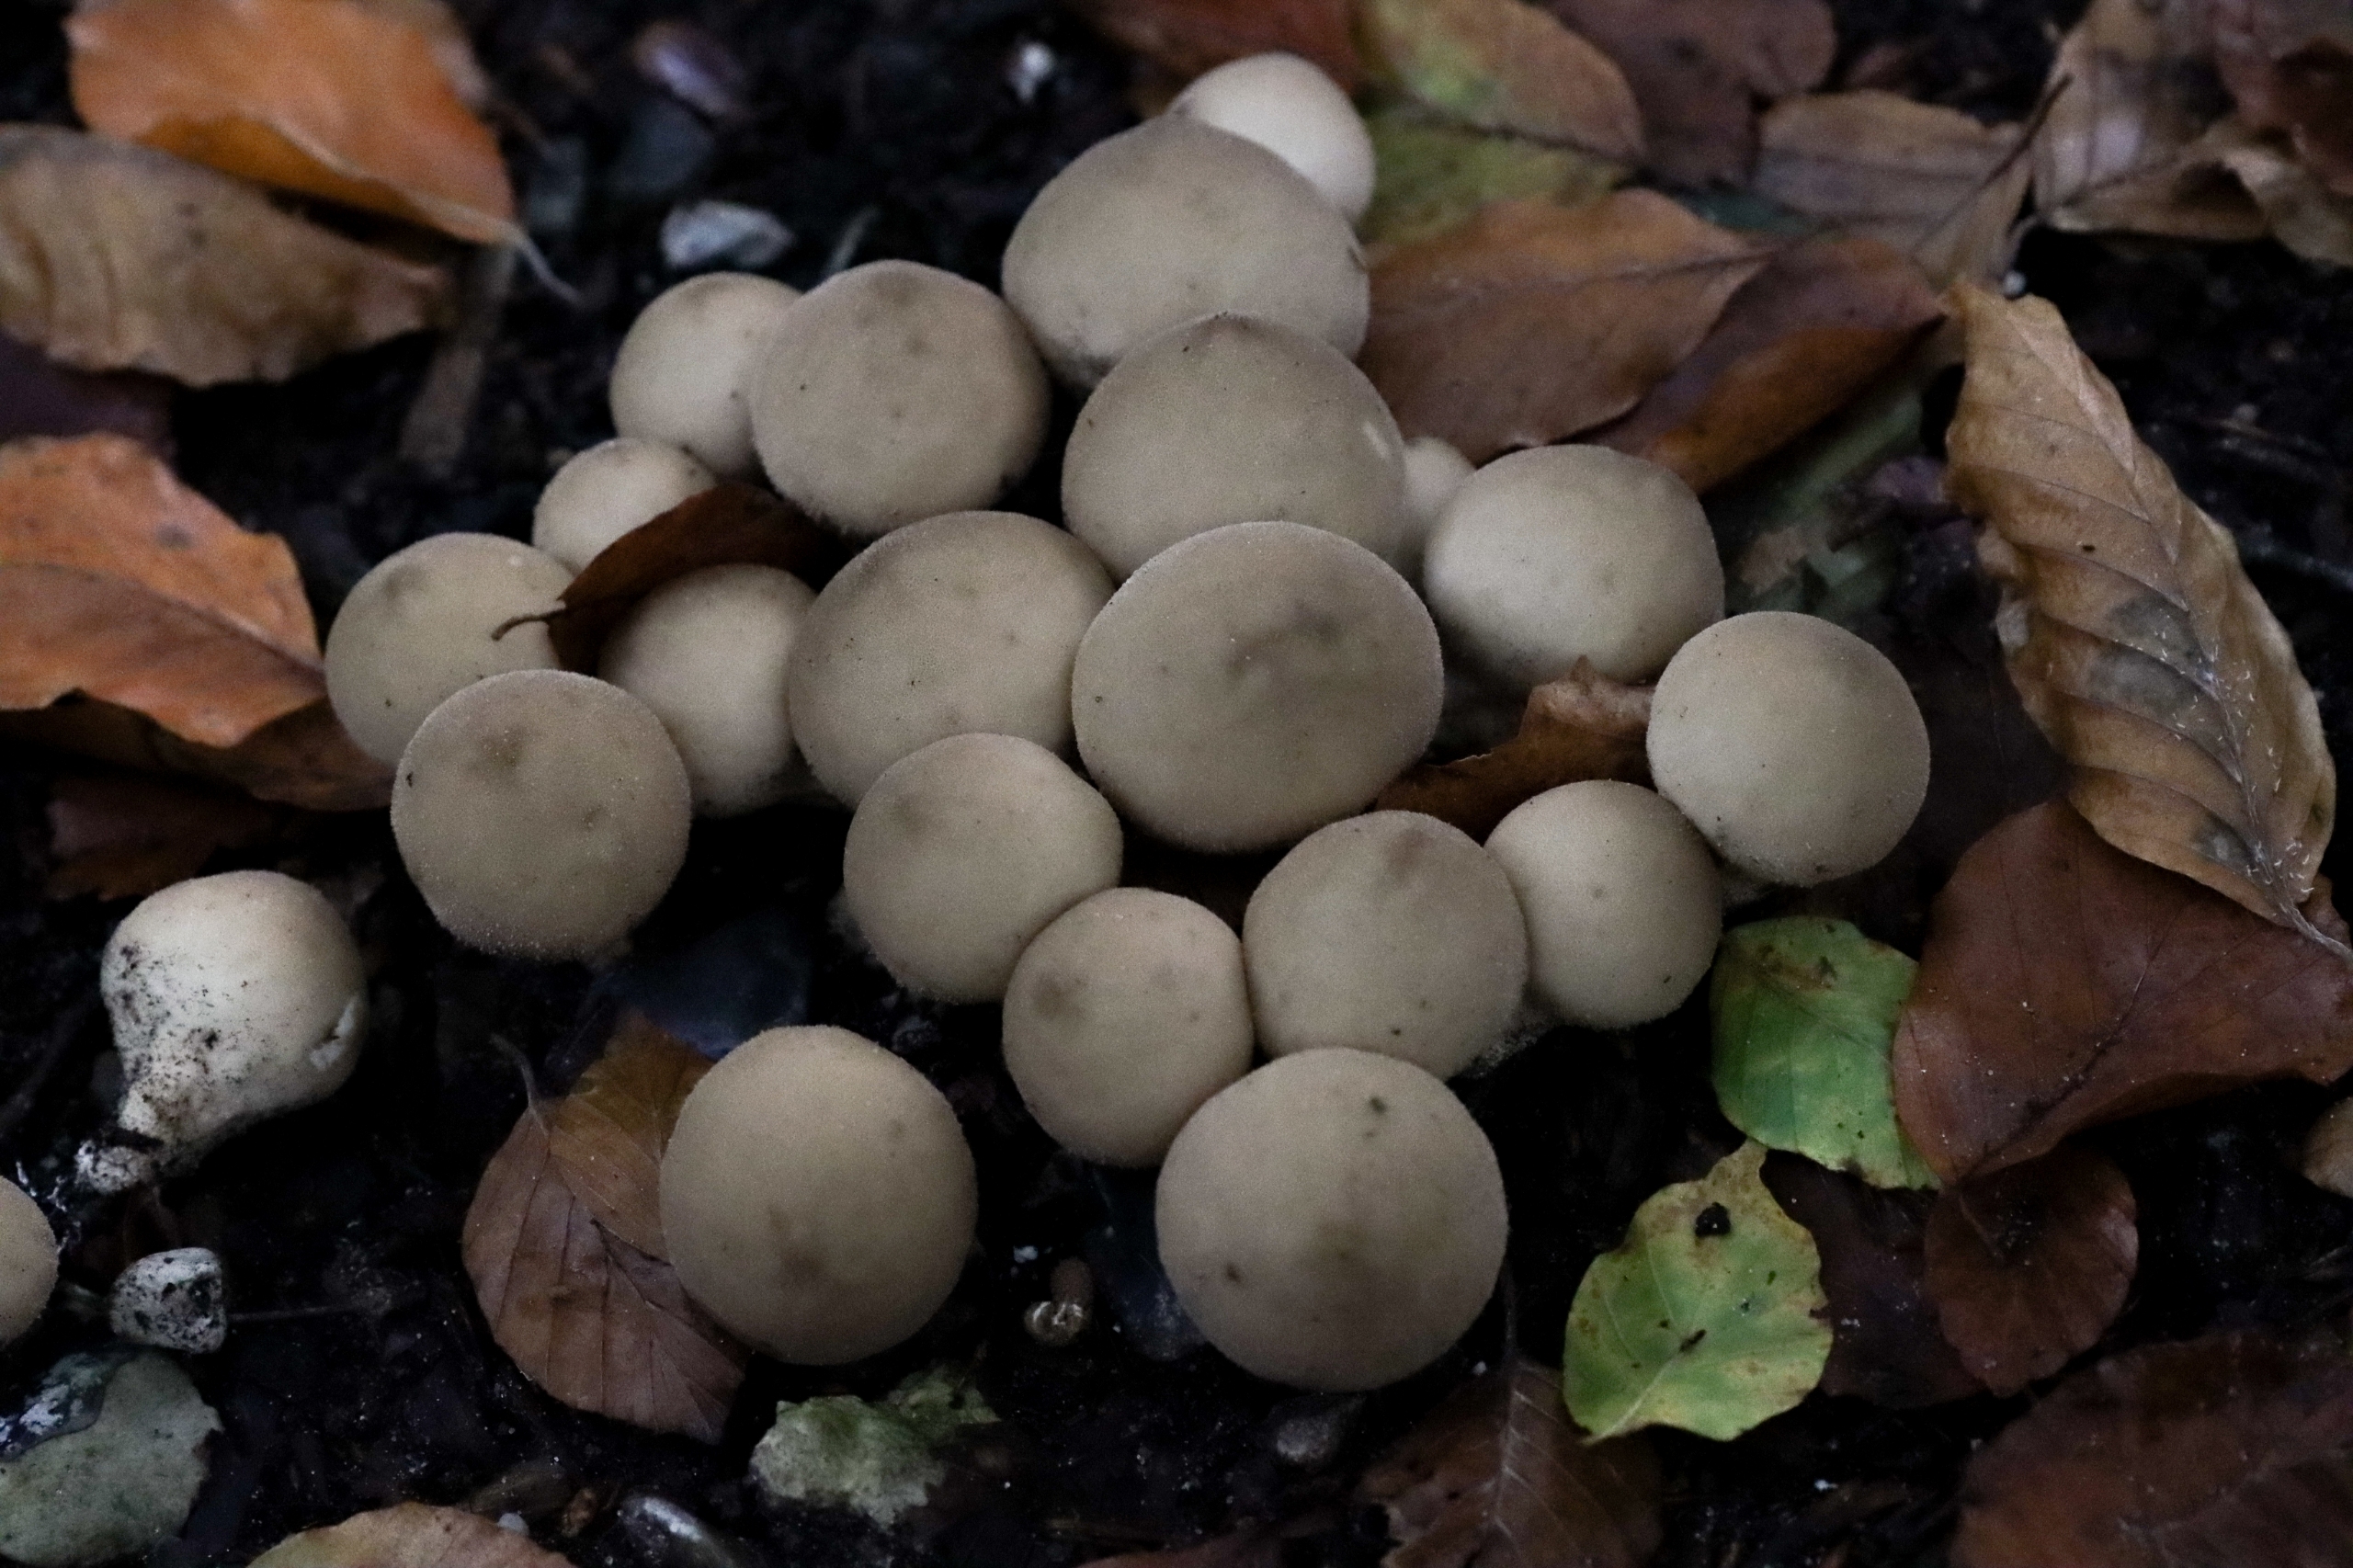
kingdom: Fungi
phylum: Basidiomycota
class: Agaricomycetes
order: Agaricales
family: Lycoperdaceae
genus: Apioperdon
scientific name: Apioperdon pyriforme
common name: Pære-støvbold
